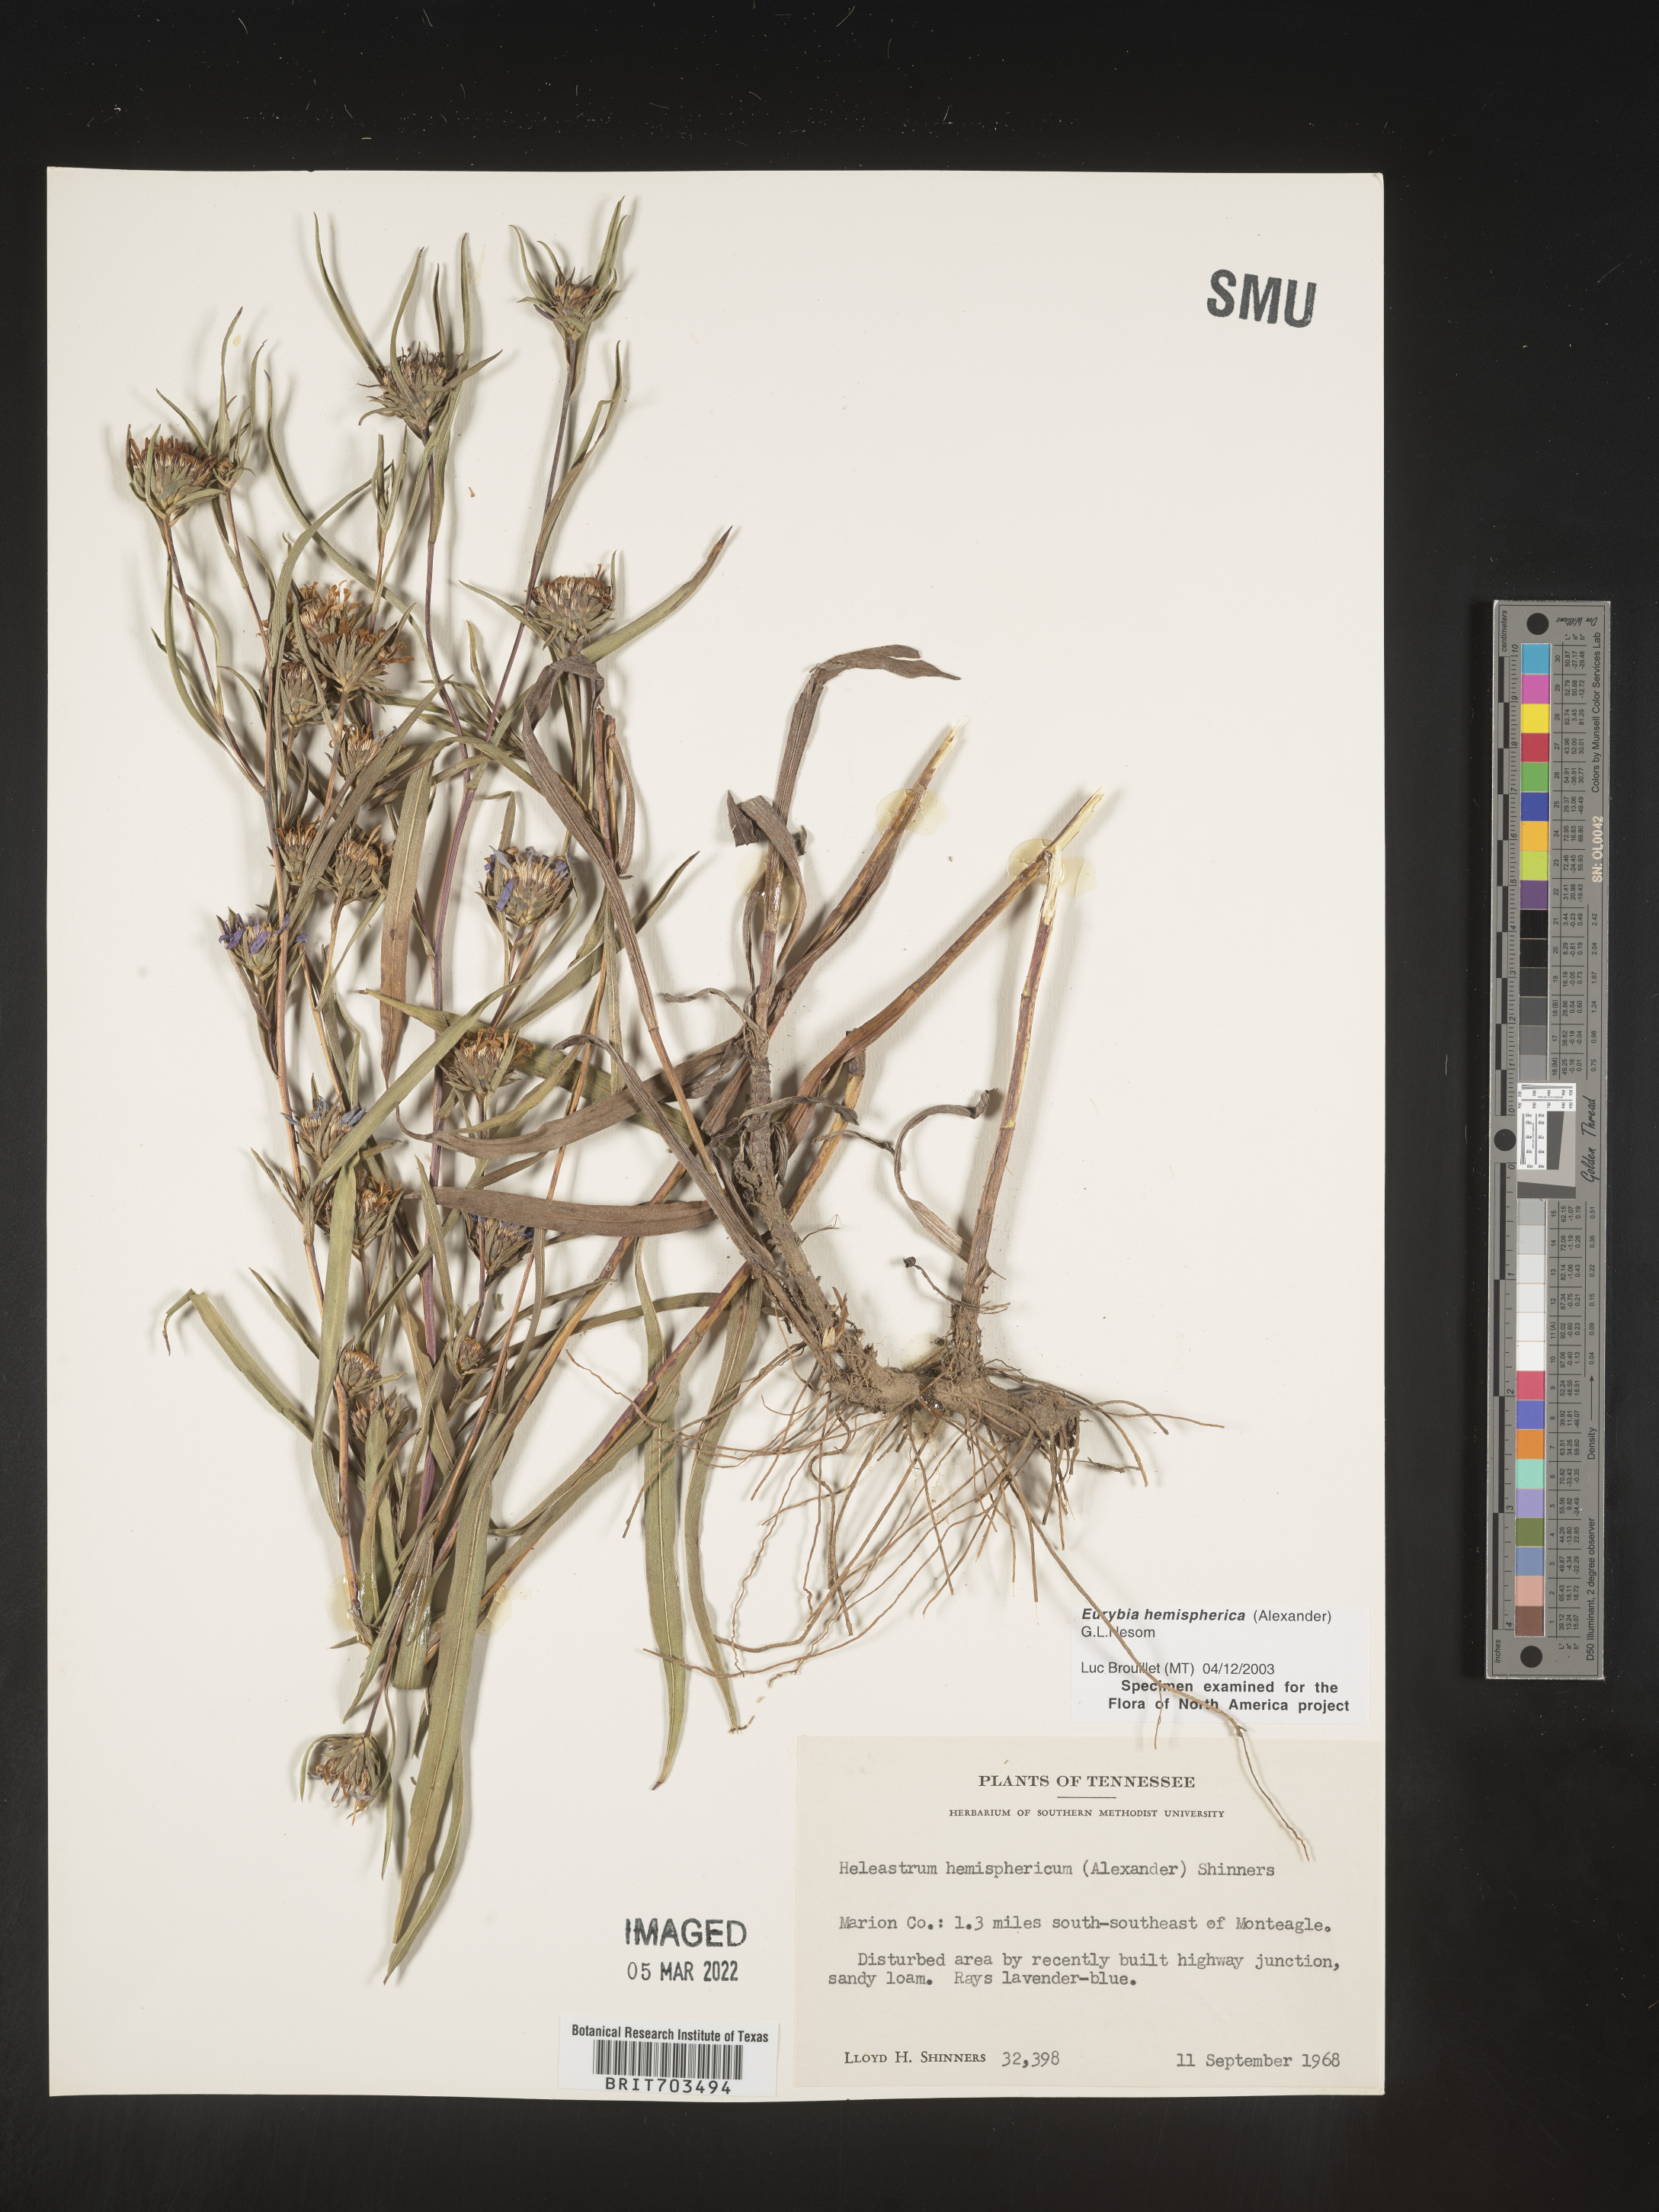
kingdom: Plantae
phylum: Tracheophyta
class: Magnoliopsida
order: Asterales
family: Asteraceae
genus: Eurybia
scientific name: Eurybia hemispherica
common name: Showy aster
